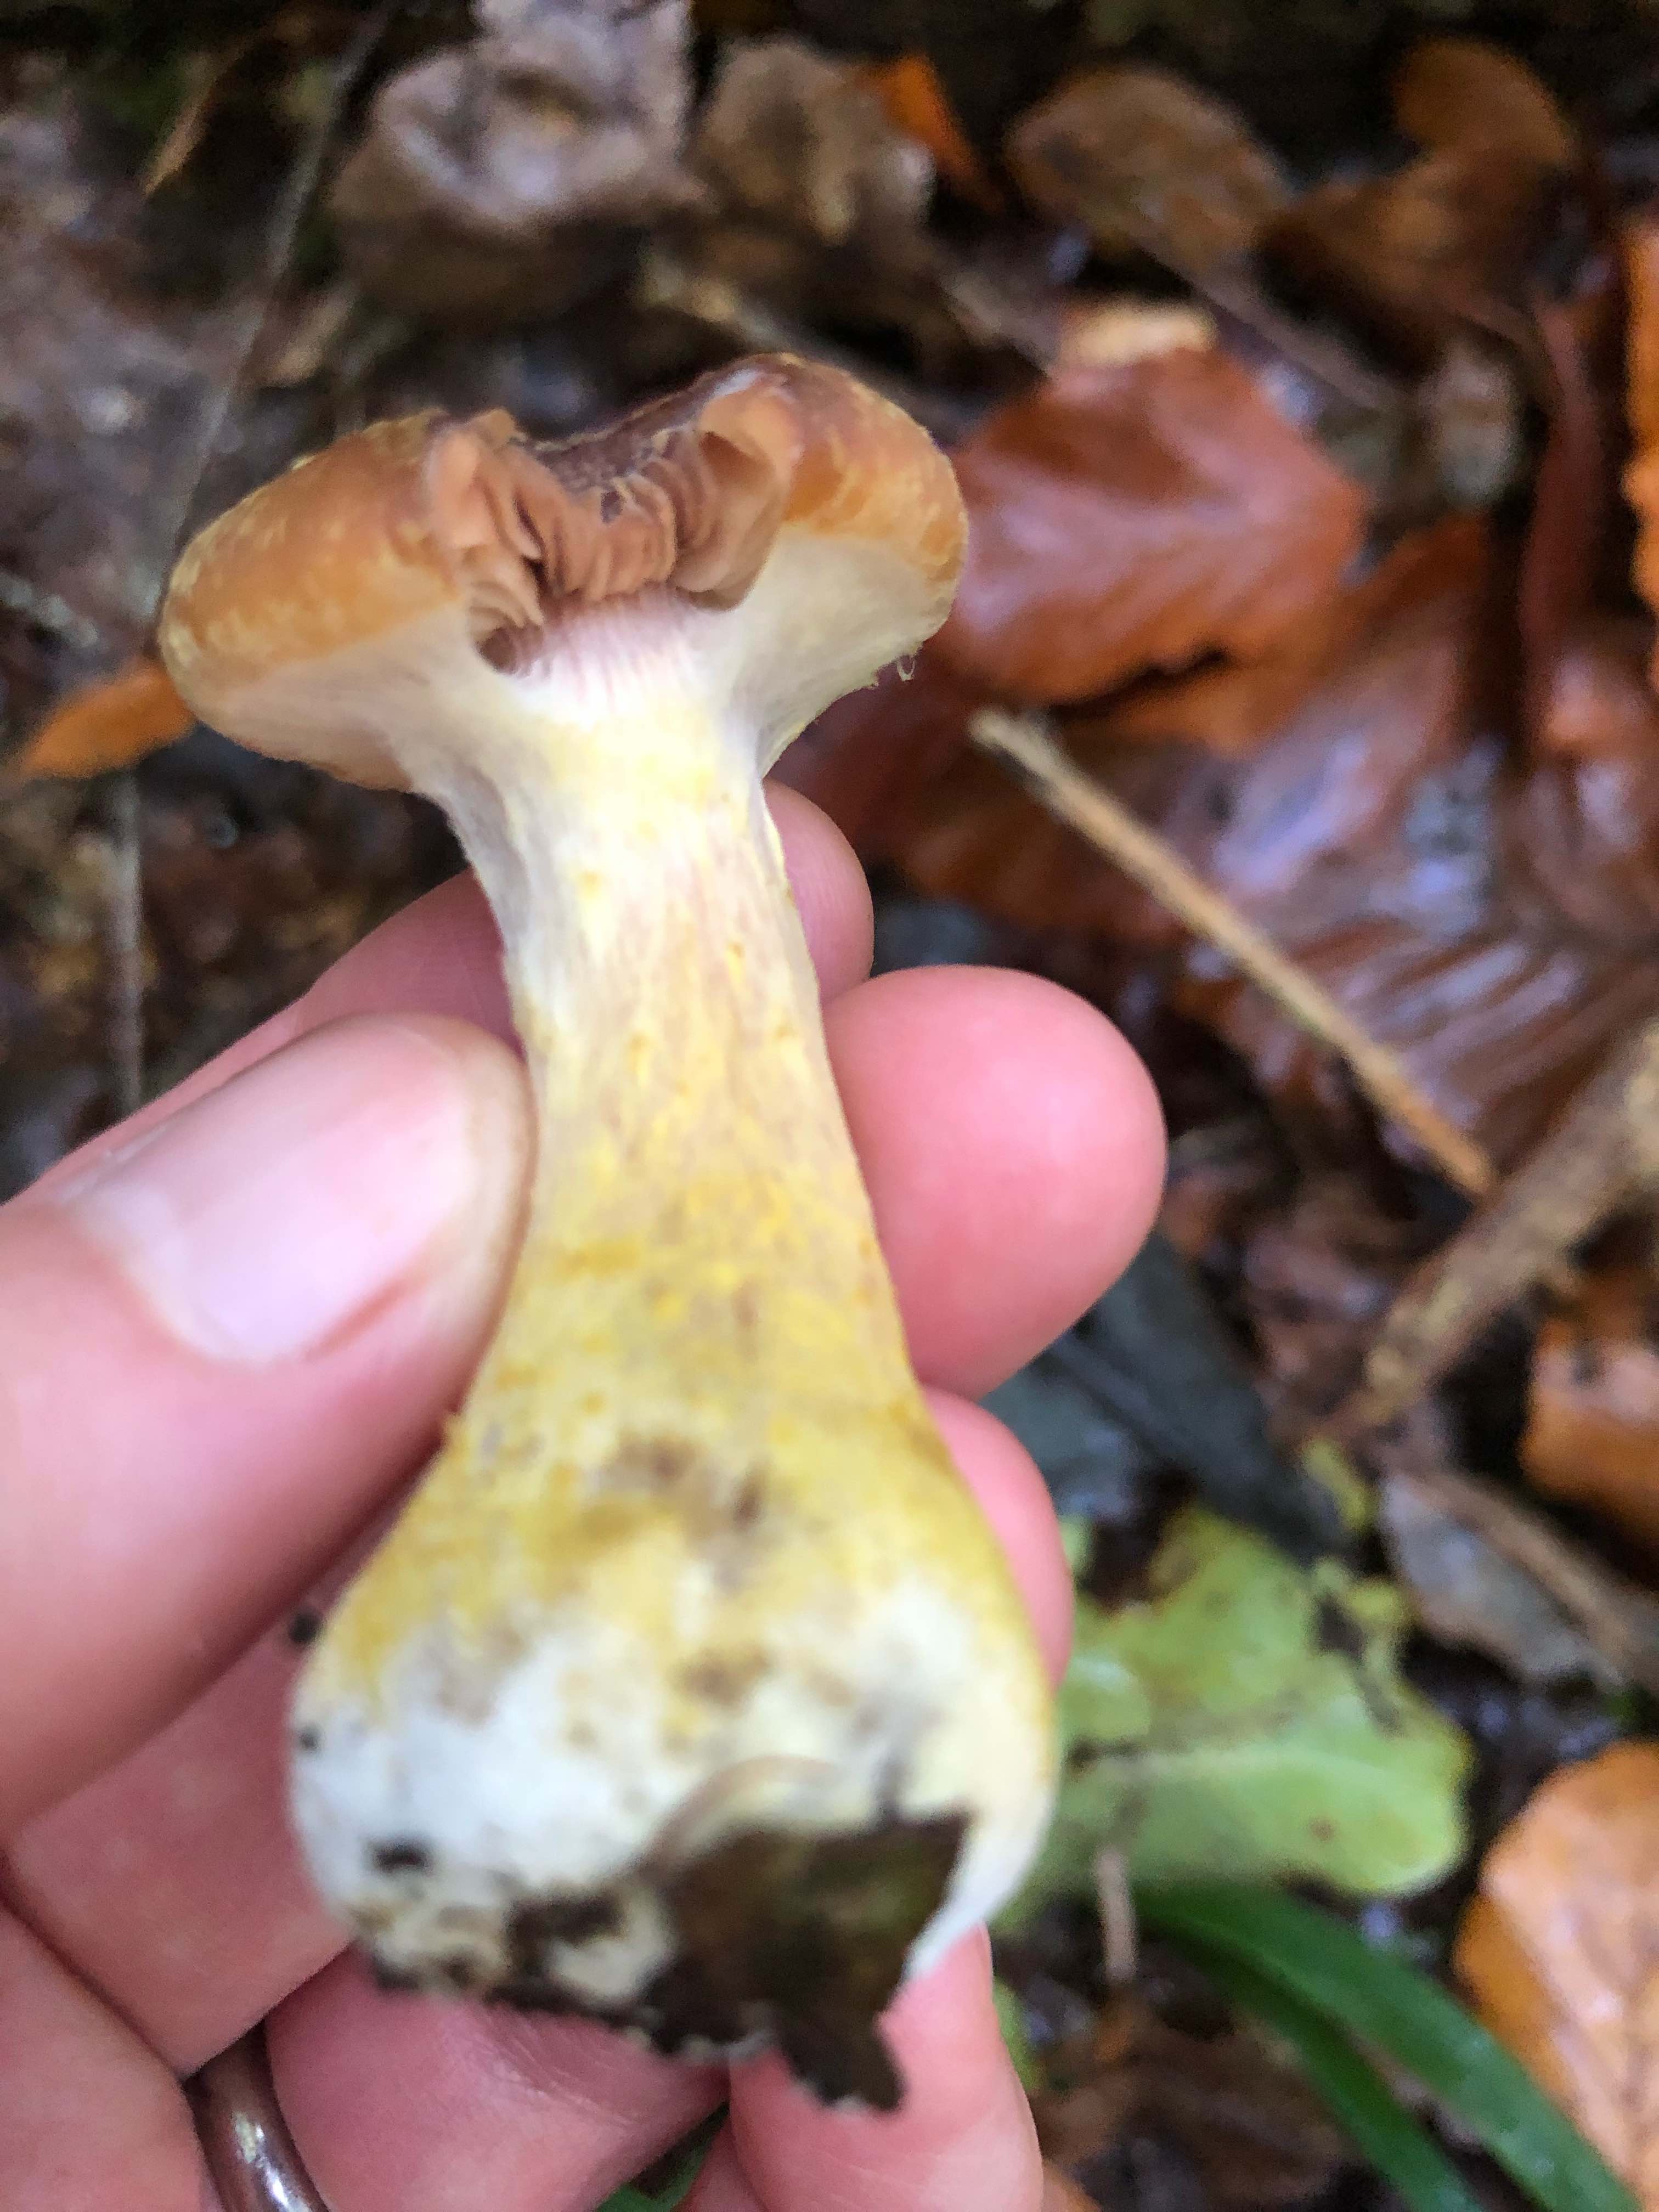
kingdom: Fungi
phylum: Basidiomycota
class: Agaricomycetes
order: Agaricales
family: Physalacriaceae
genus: Armillaria
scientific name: Armillaria lutea
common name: køllestokket honningsvamp
